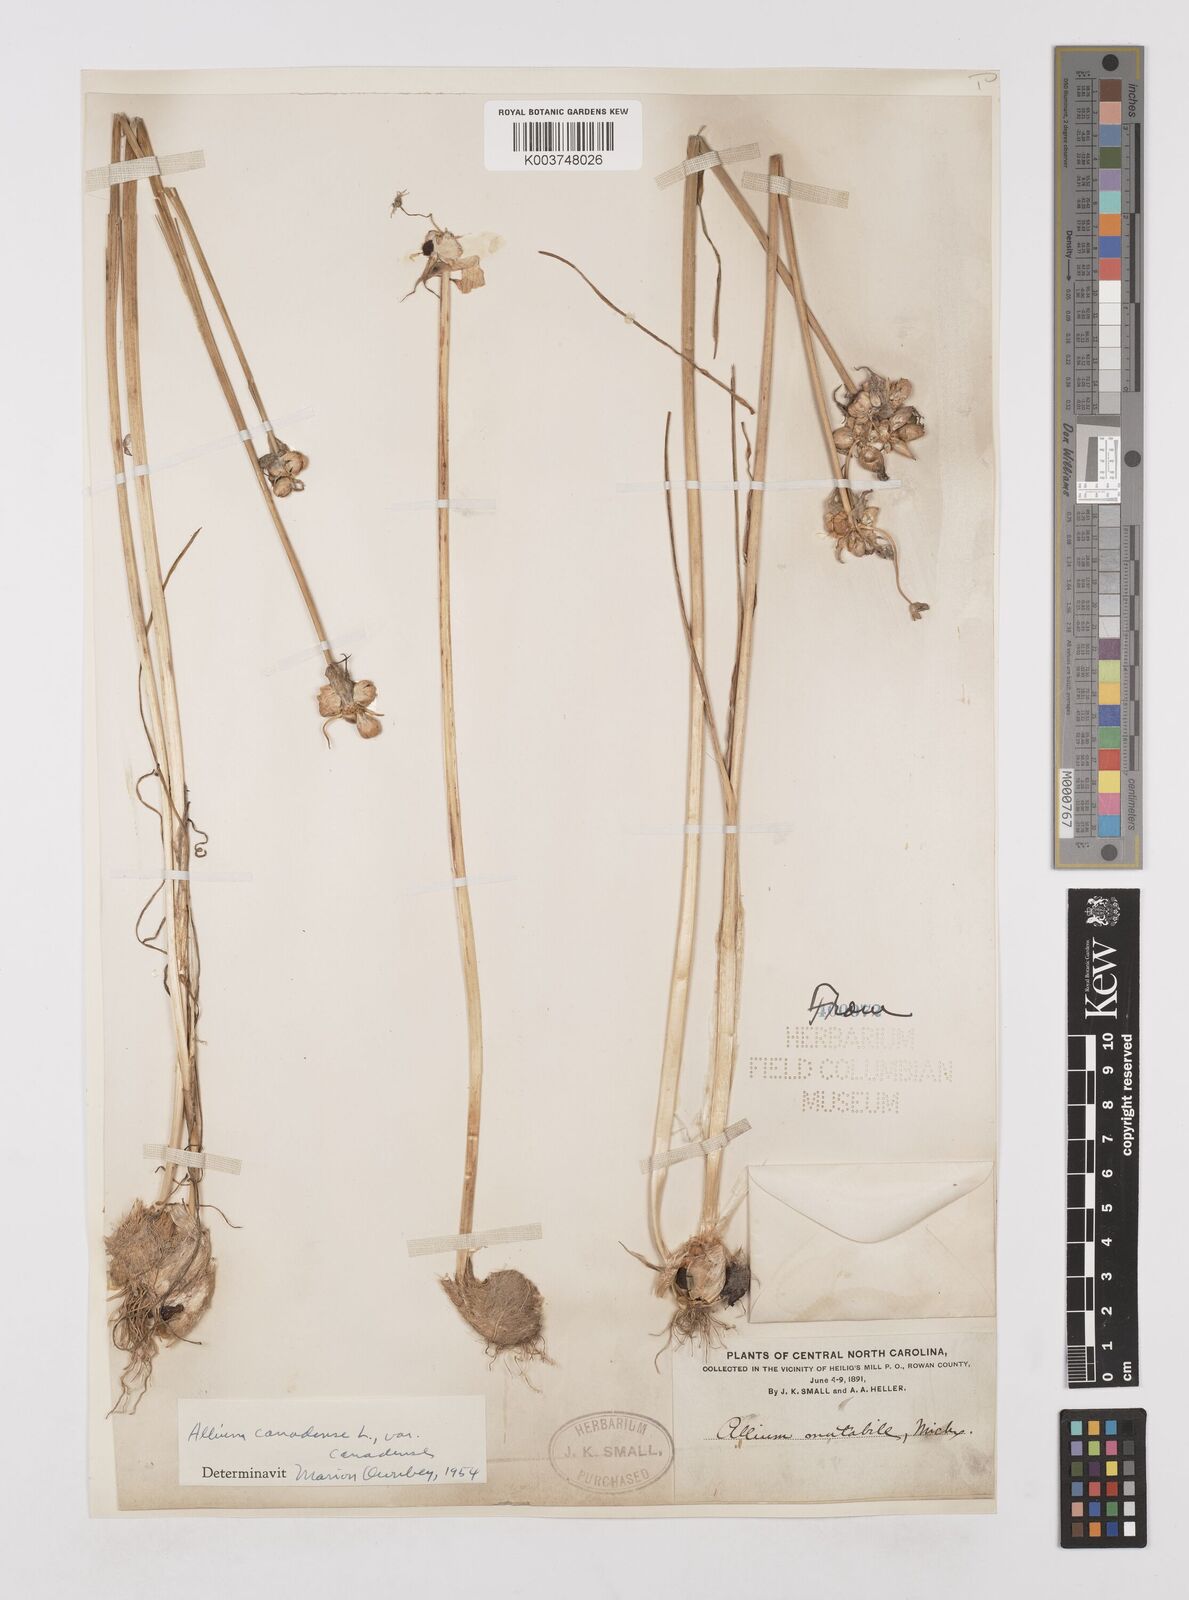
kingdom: Plantae
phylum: Tracheophyta
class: Liliopsida
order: Asparagales
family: Amaryllidaceae
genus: Allium
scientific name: Allium canadense
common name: Meadow garlic
